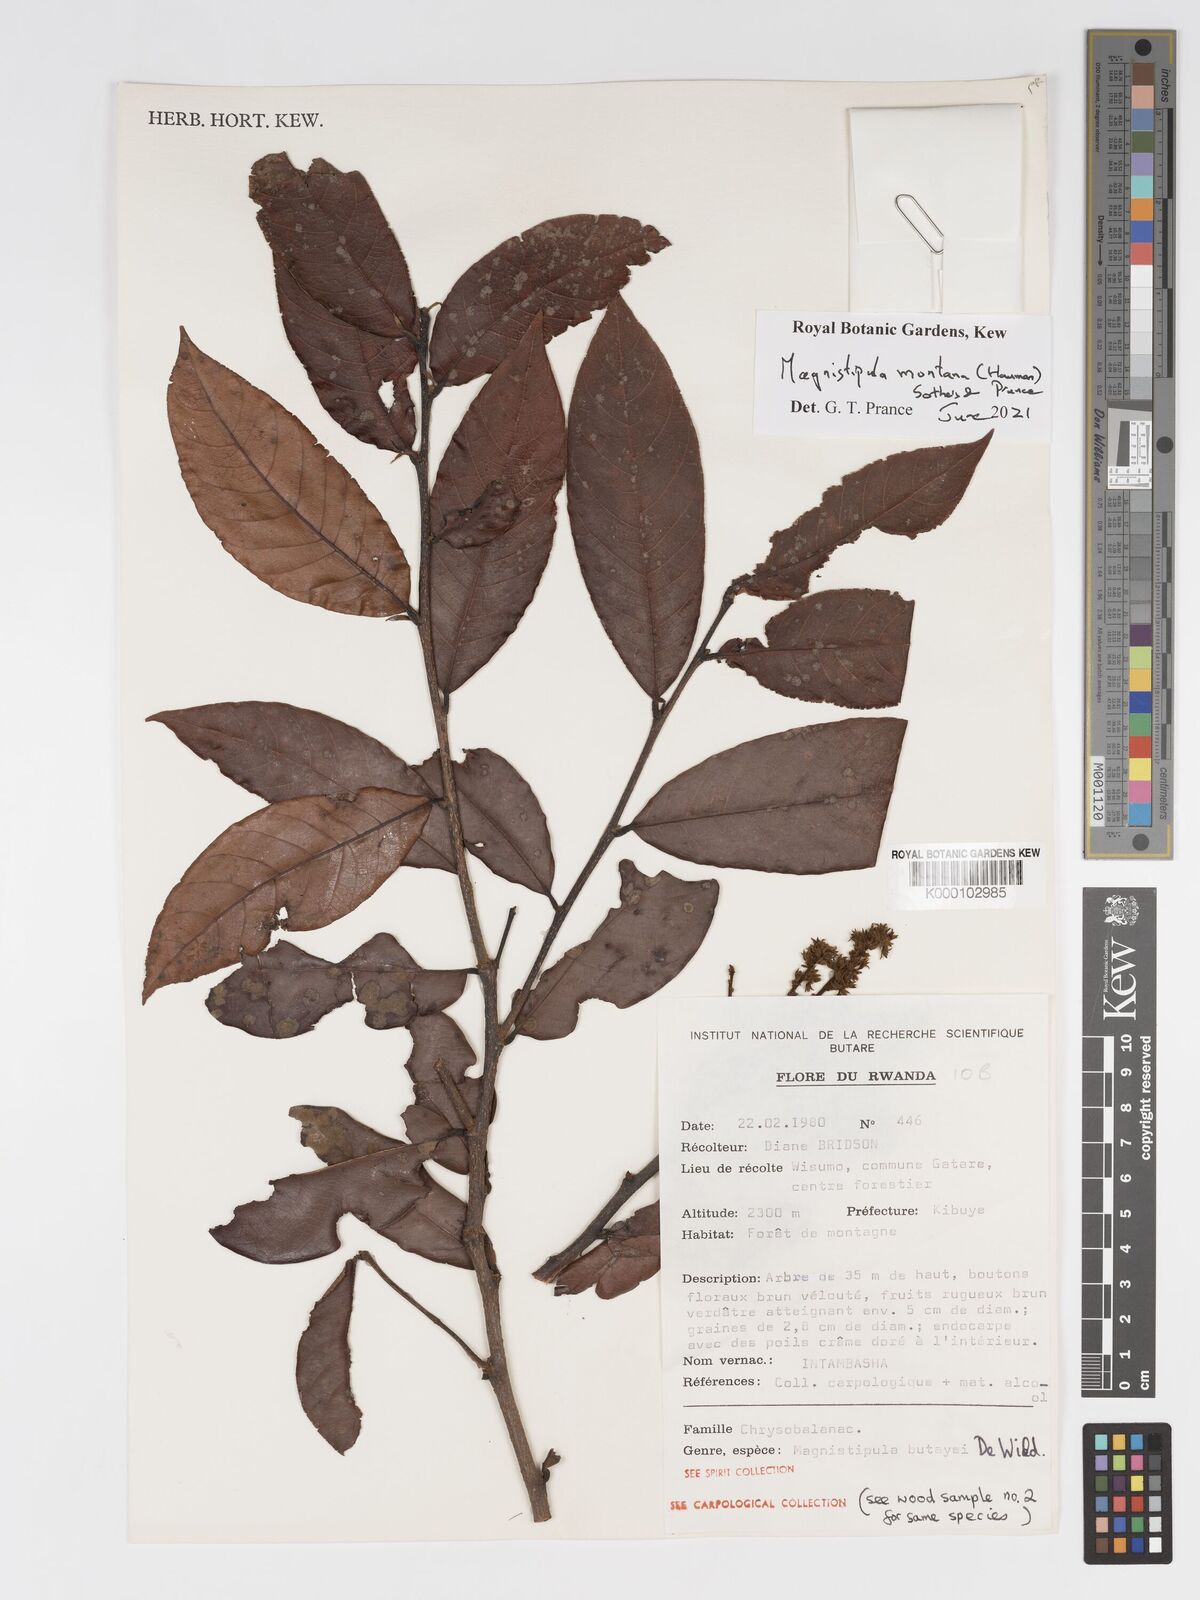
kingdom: Plantae
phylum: Tracheophyta
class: Magnoliopsida
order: Malpighiales
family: Chrysobalanaceae
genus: Magnistipula
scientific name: Magnistipula butayei
